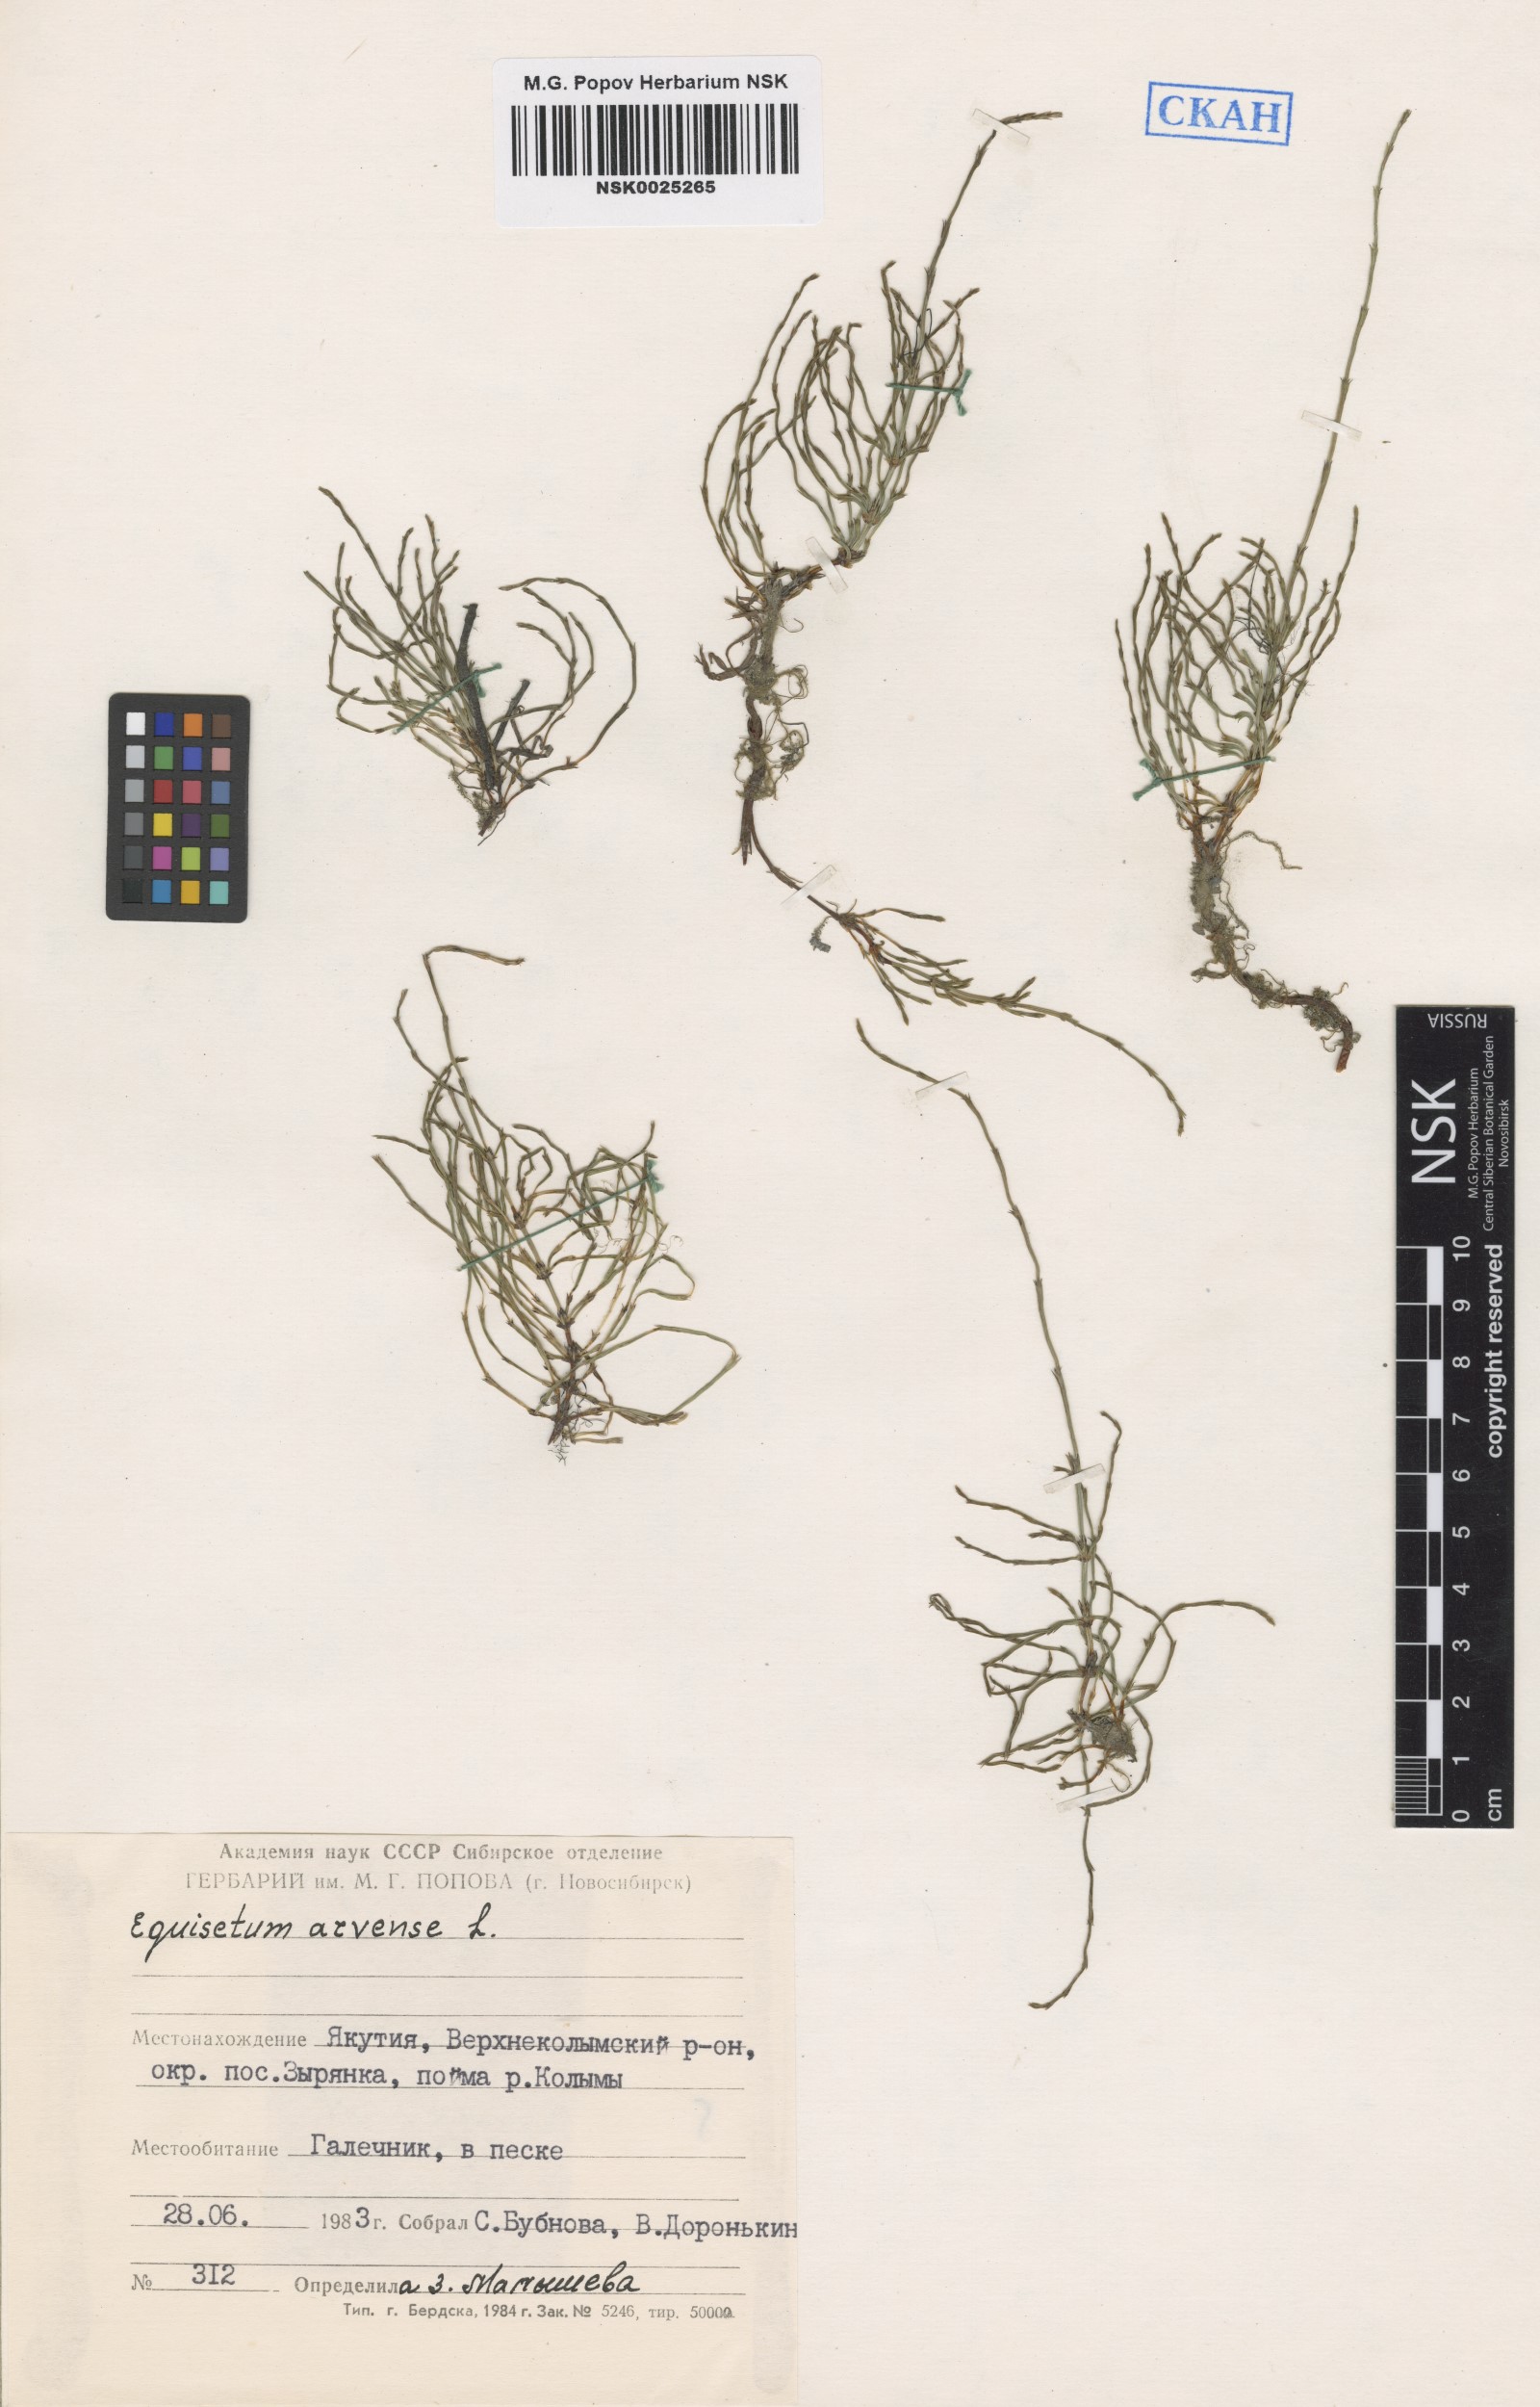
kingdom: Plantae
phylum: Tracheophyta
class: Polypodiopsida
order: Equisetales
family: Equisetaceae
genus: Equisetum
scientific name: Equisetum arvense
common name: Field horsetail
